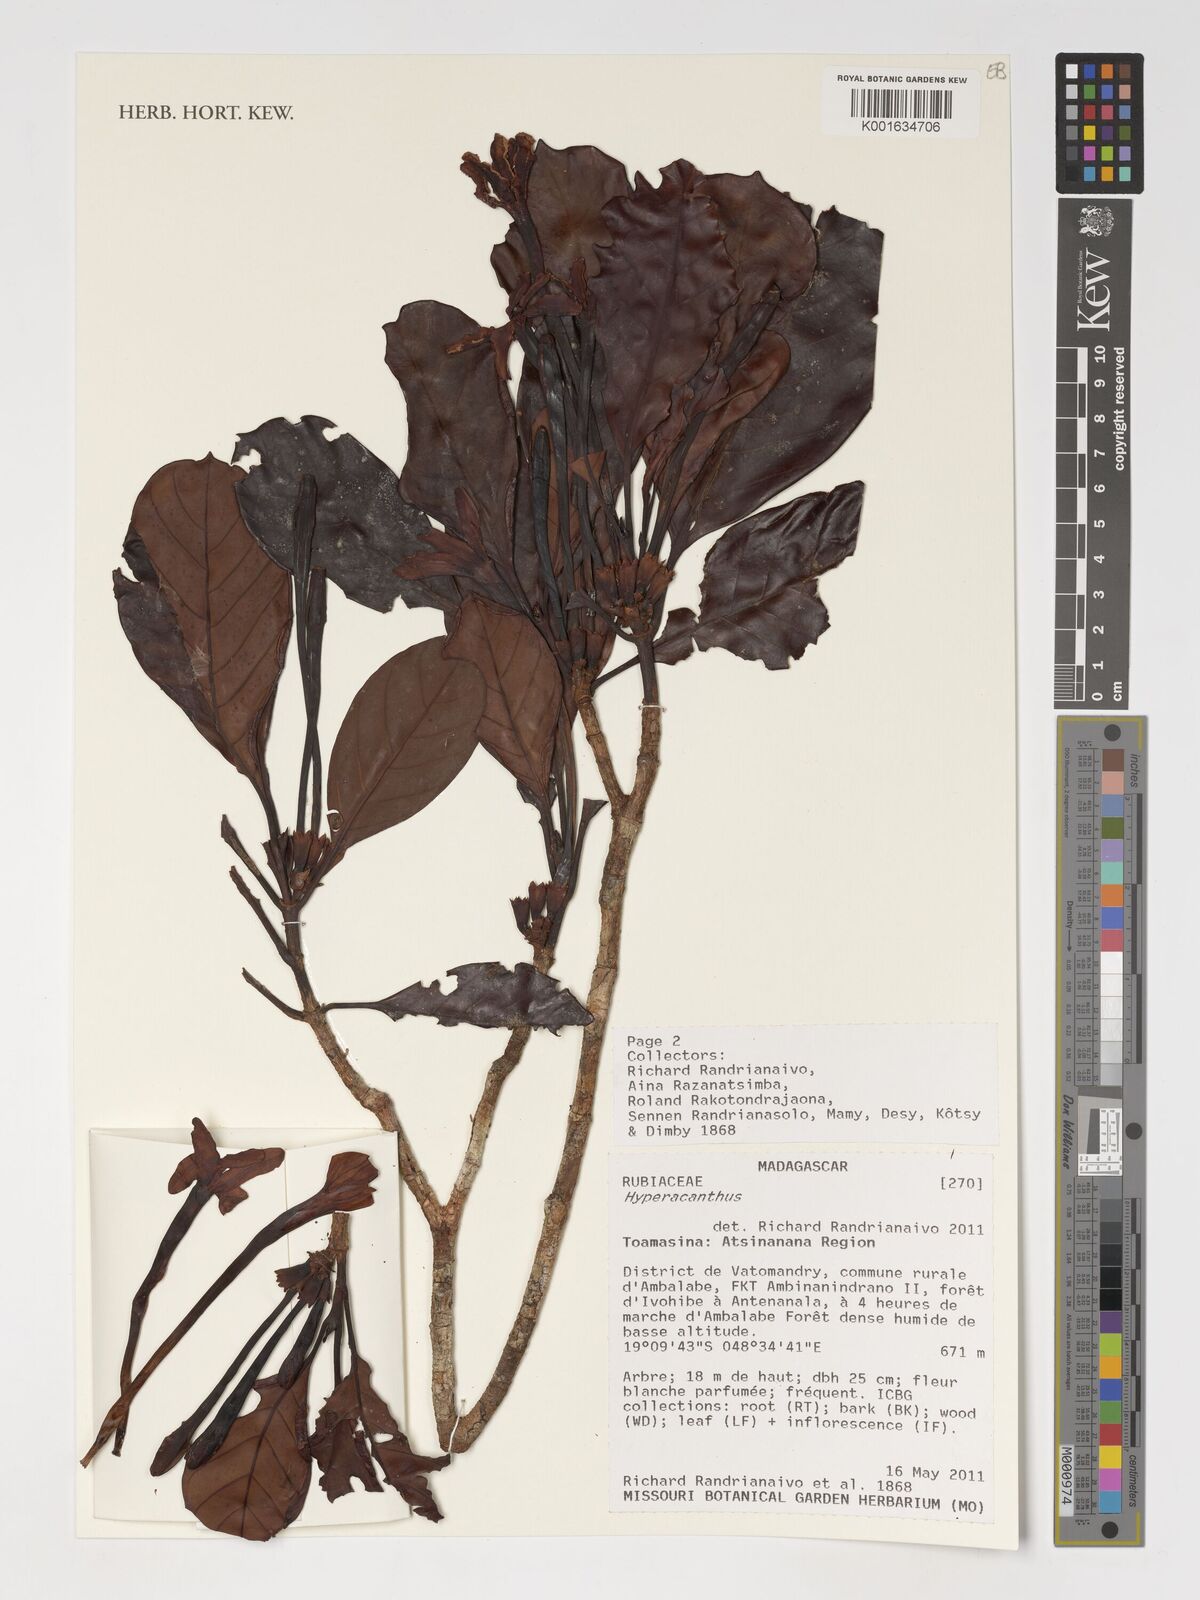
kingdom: Plantae
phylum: Tracheophyta
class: Magnoliopsida
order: Gentianales
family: Rubiaceae
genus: Hyperacanthus
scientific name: Hyperacanthus
